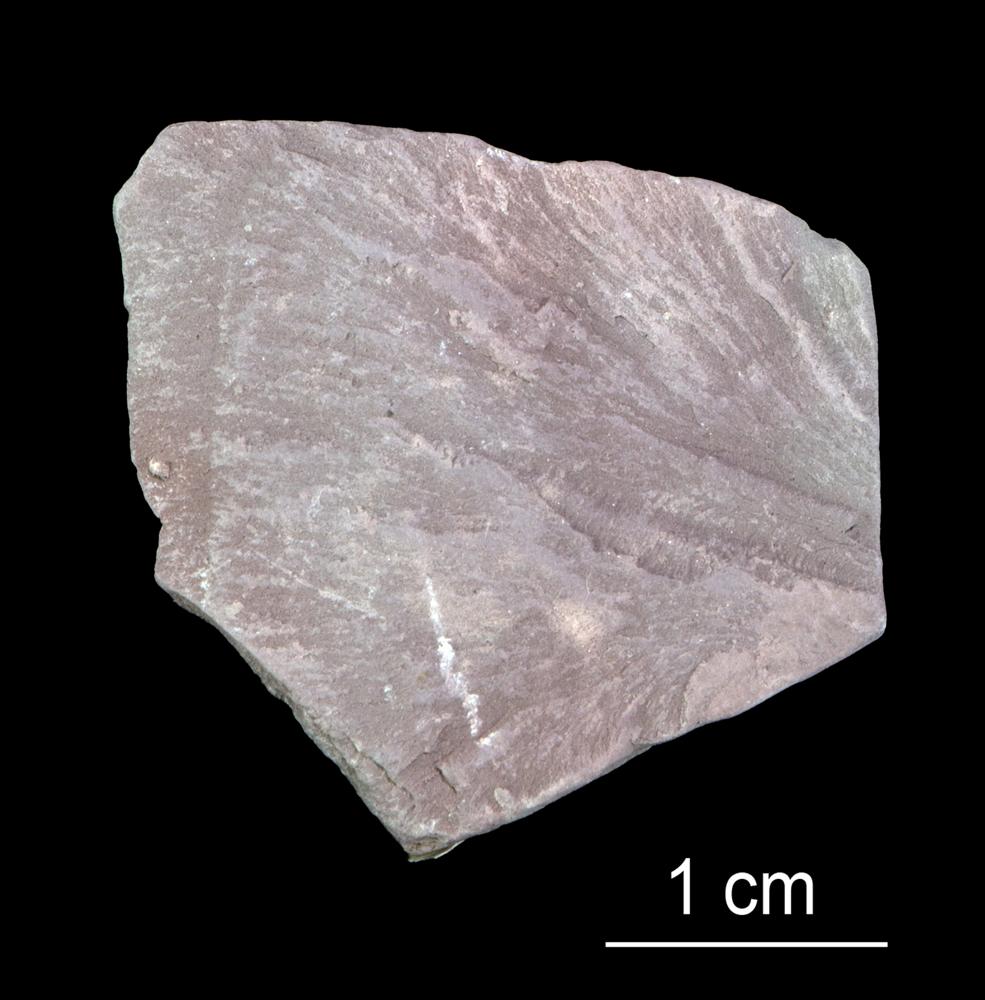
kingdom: Animalia
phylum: Annelida
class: Polychaeta
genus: Hyolithes
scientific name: Hyolithes
